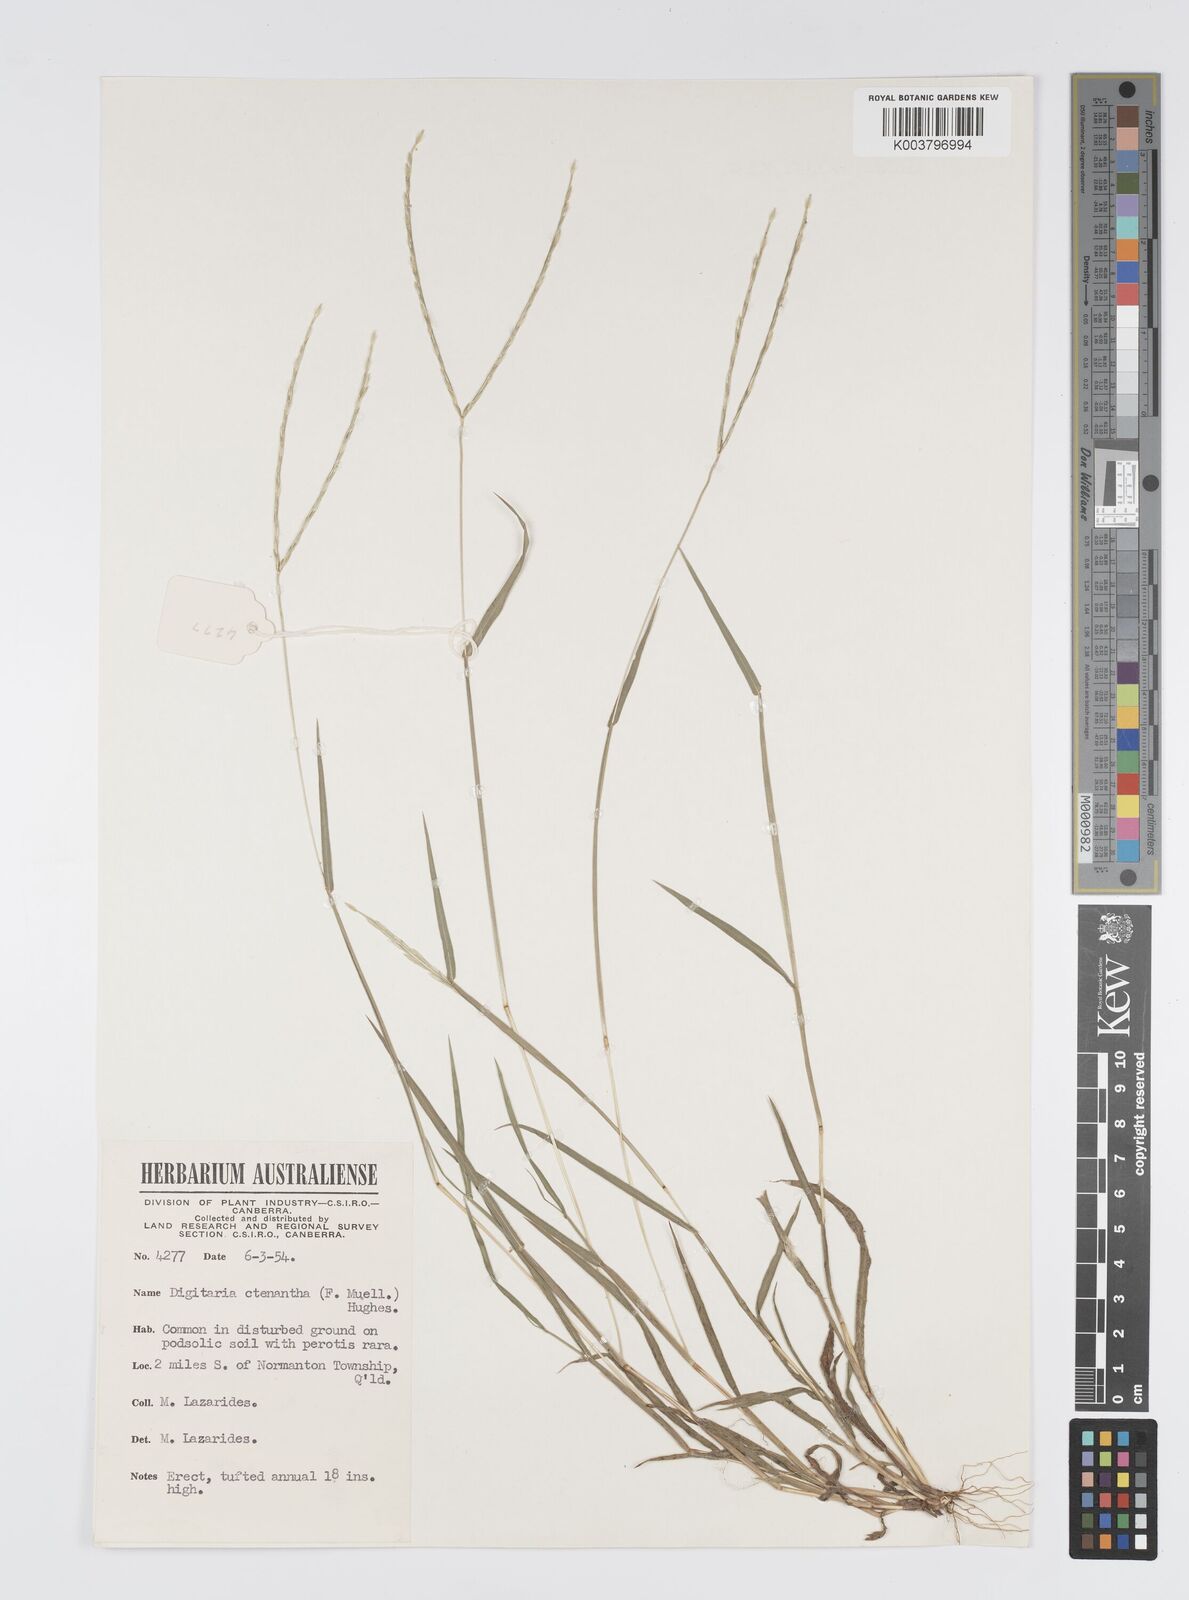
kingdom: Plantae
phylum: Tracheophyta
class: Liliopsida
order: Poales
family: Poaceae
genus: Digitaria
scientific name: Digitaria ctenantha
